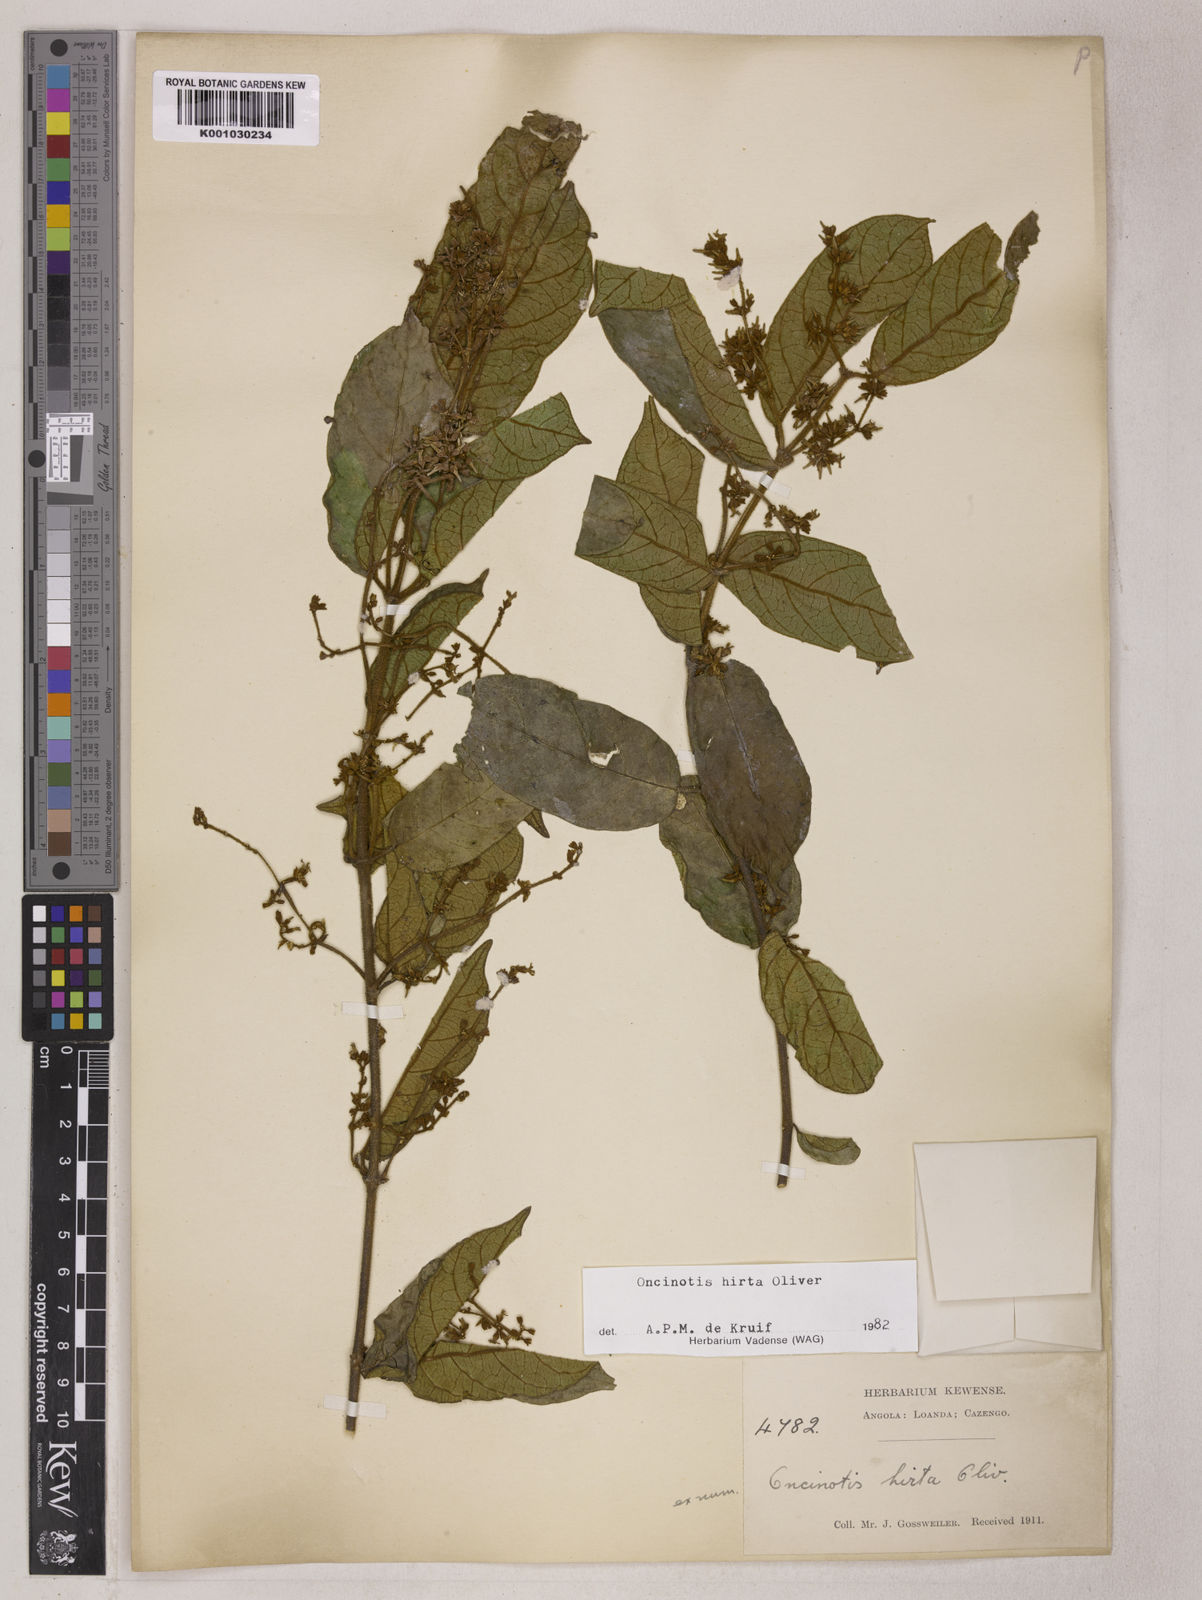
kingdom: Plantae
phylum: Tracheophyta
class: Magnoliopsida
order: Gentianales
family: Apocynaceae
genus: Oncinotis
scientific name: Oncinotis hirta
